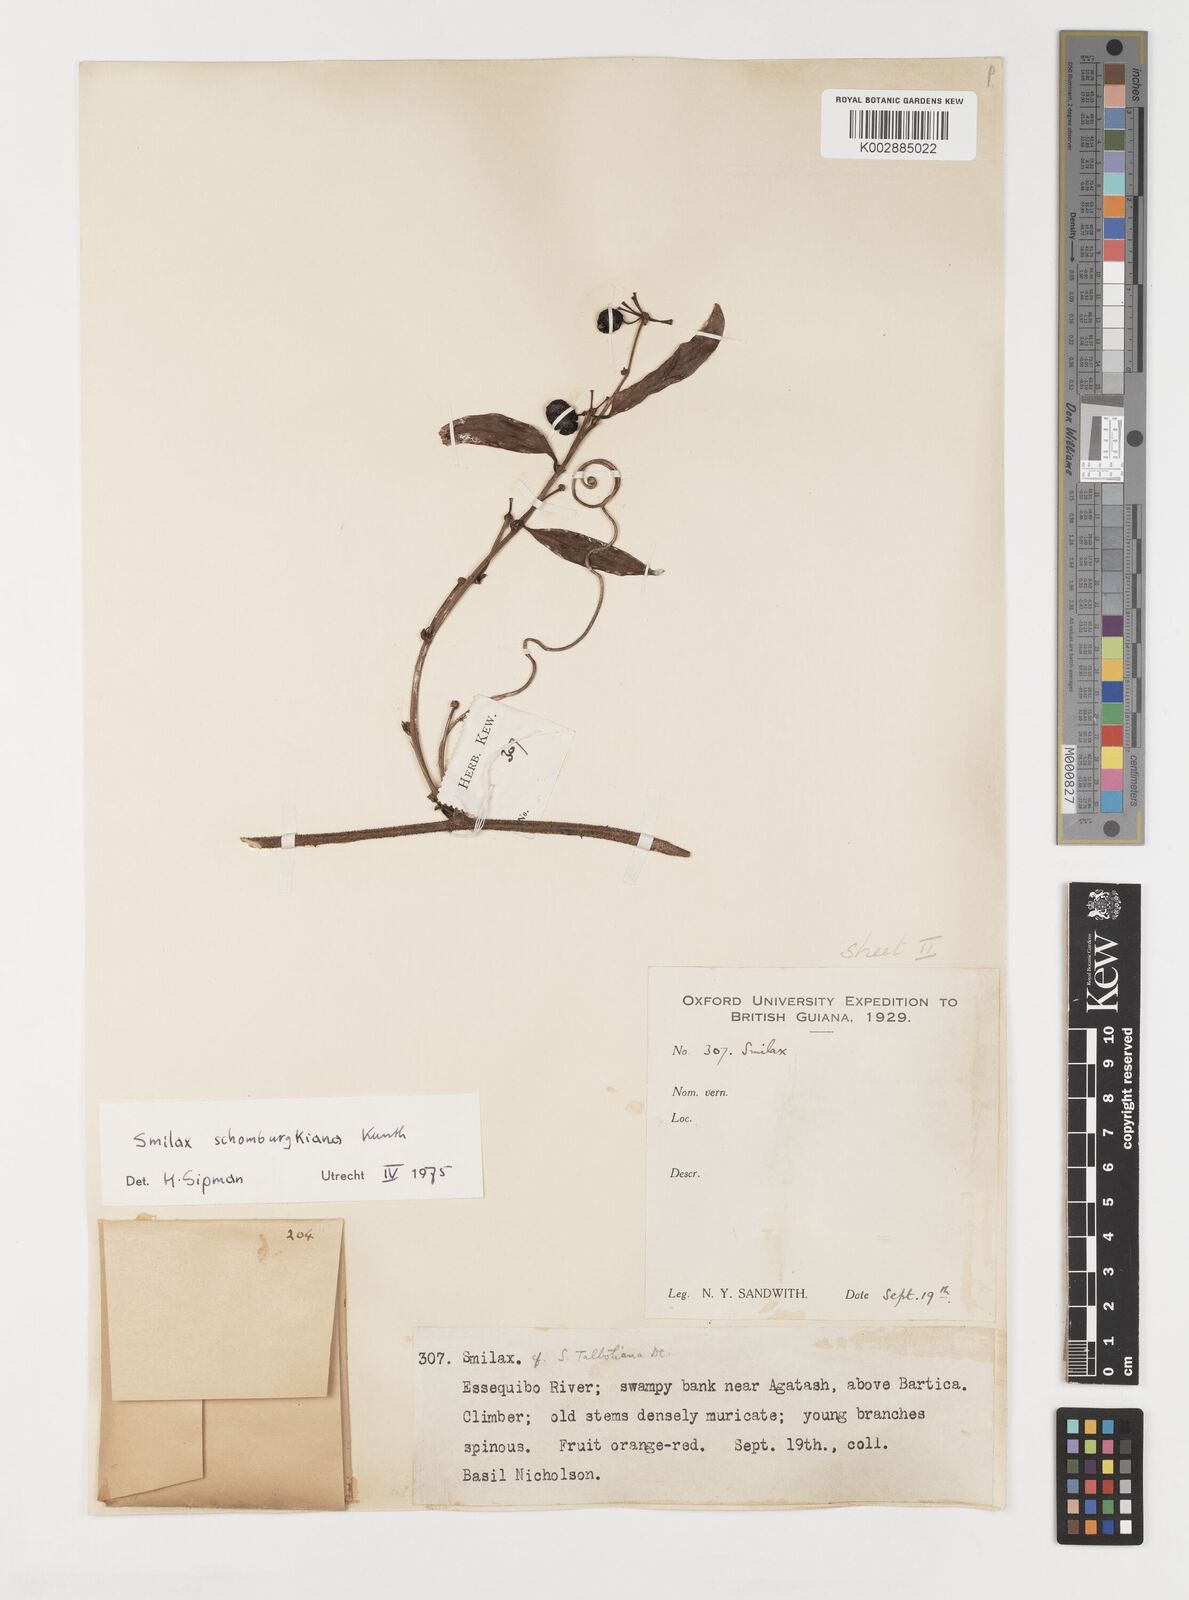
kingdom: Plantae
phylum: Tracheophyta
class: Liliopsida
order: Liliales
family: Smilacaceae
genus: Smilax
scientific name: Smilax schomburgkiana
